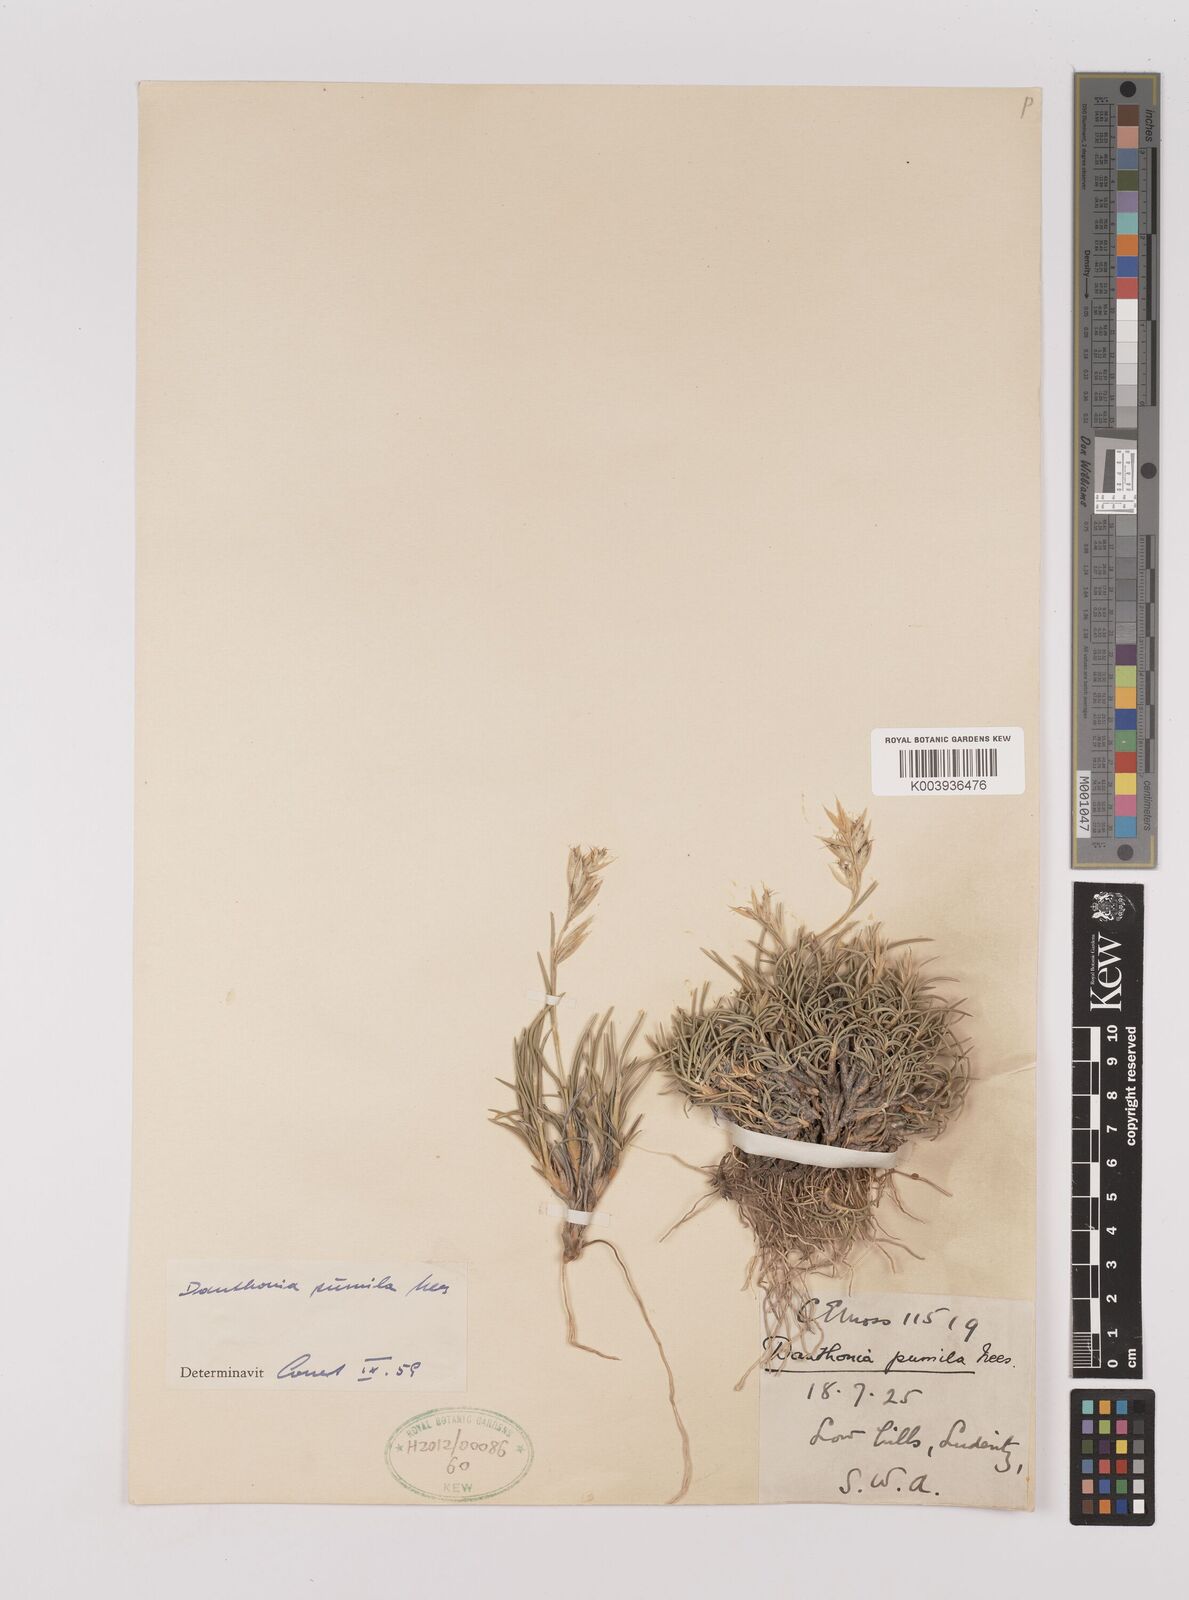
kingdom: Plantae
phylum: Tracheophyta
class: Liliopsida
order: Poales
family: Poaceae
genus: Dregeochloa
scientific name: Dregeochloa pumila
